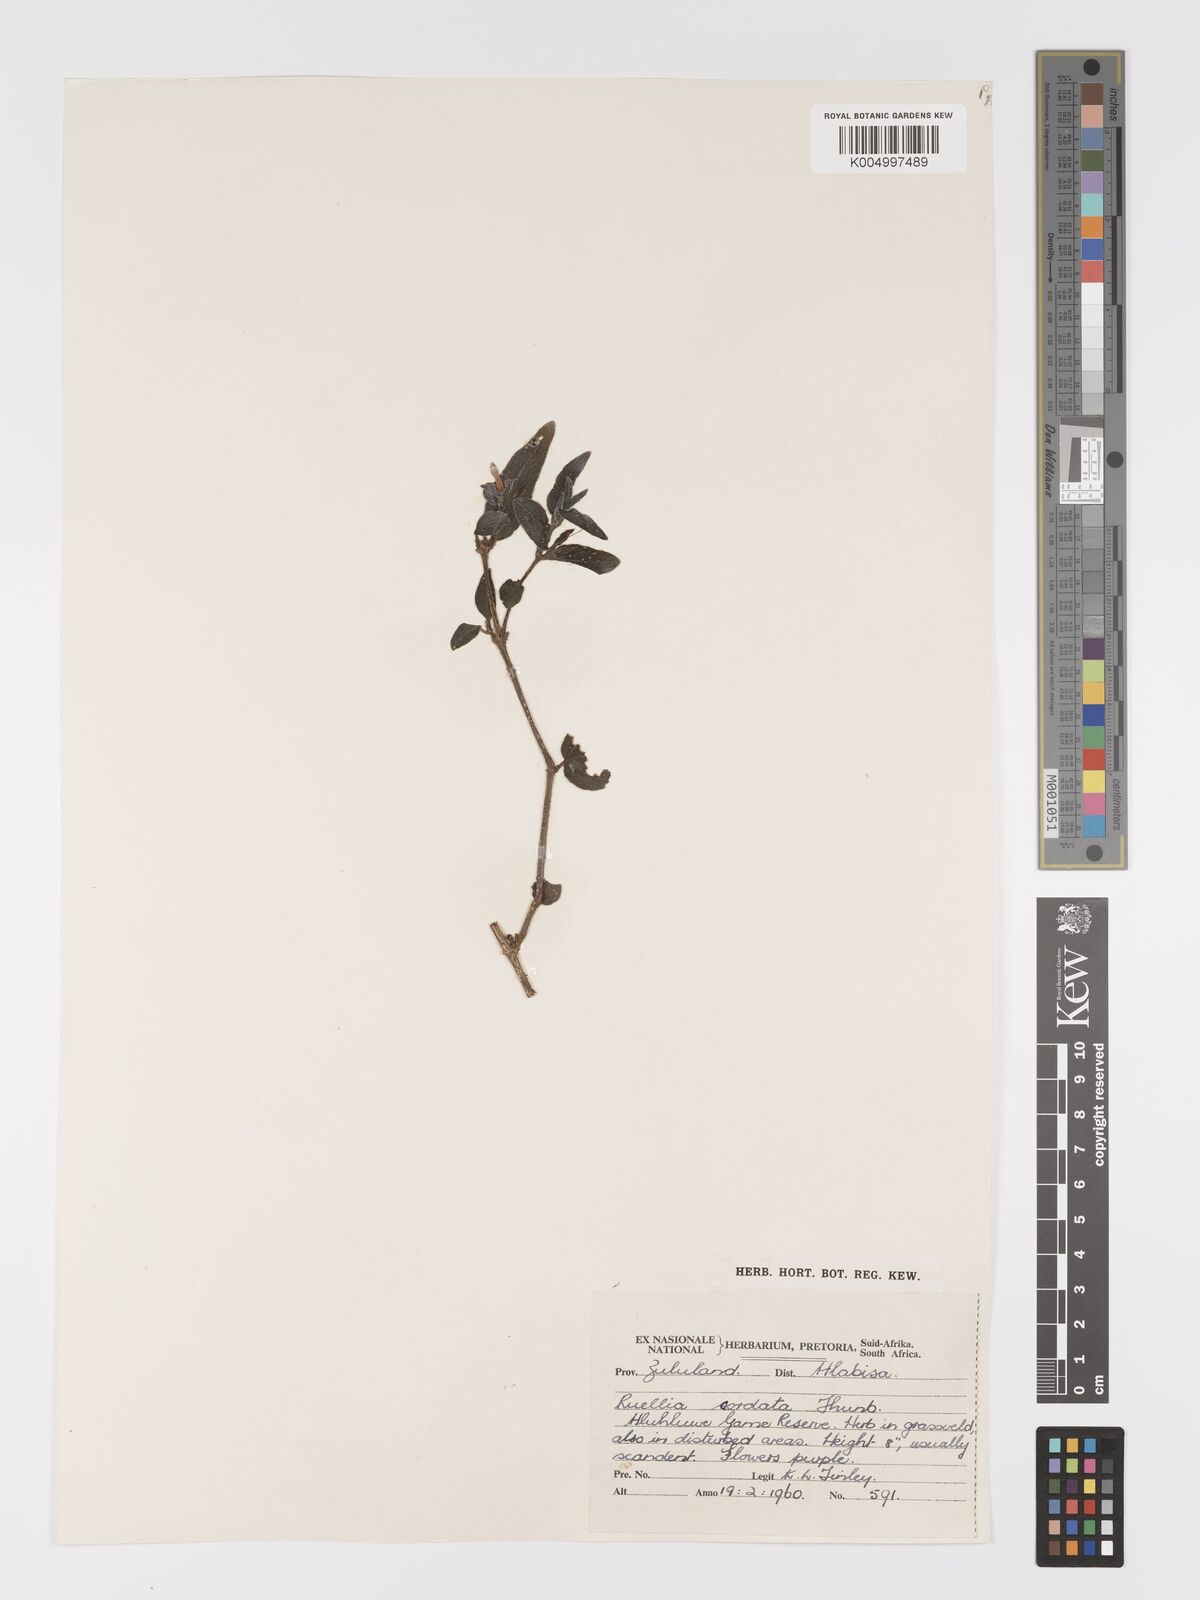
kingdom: Plantae
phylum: Tracheophyta
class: Magnoliopsida
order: Lamiales
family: Acanthaceae
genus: Ruellia
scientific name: Ruellia cordata
